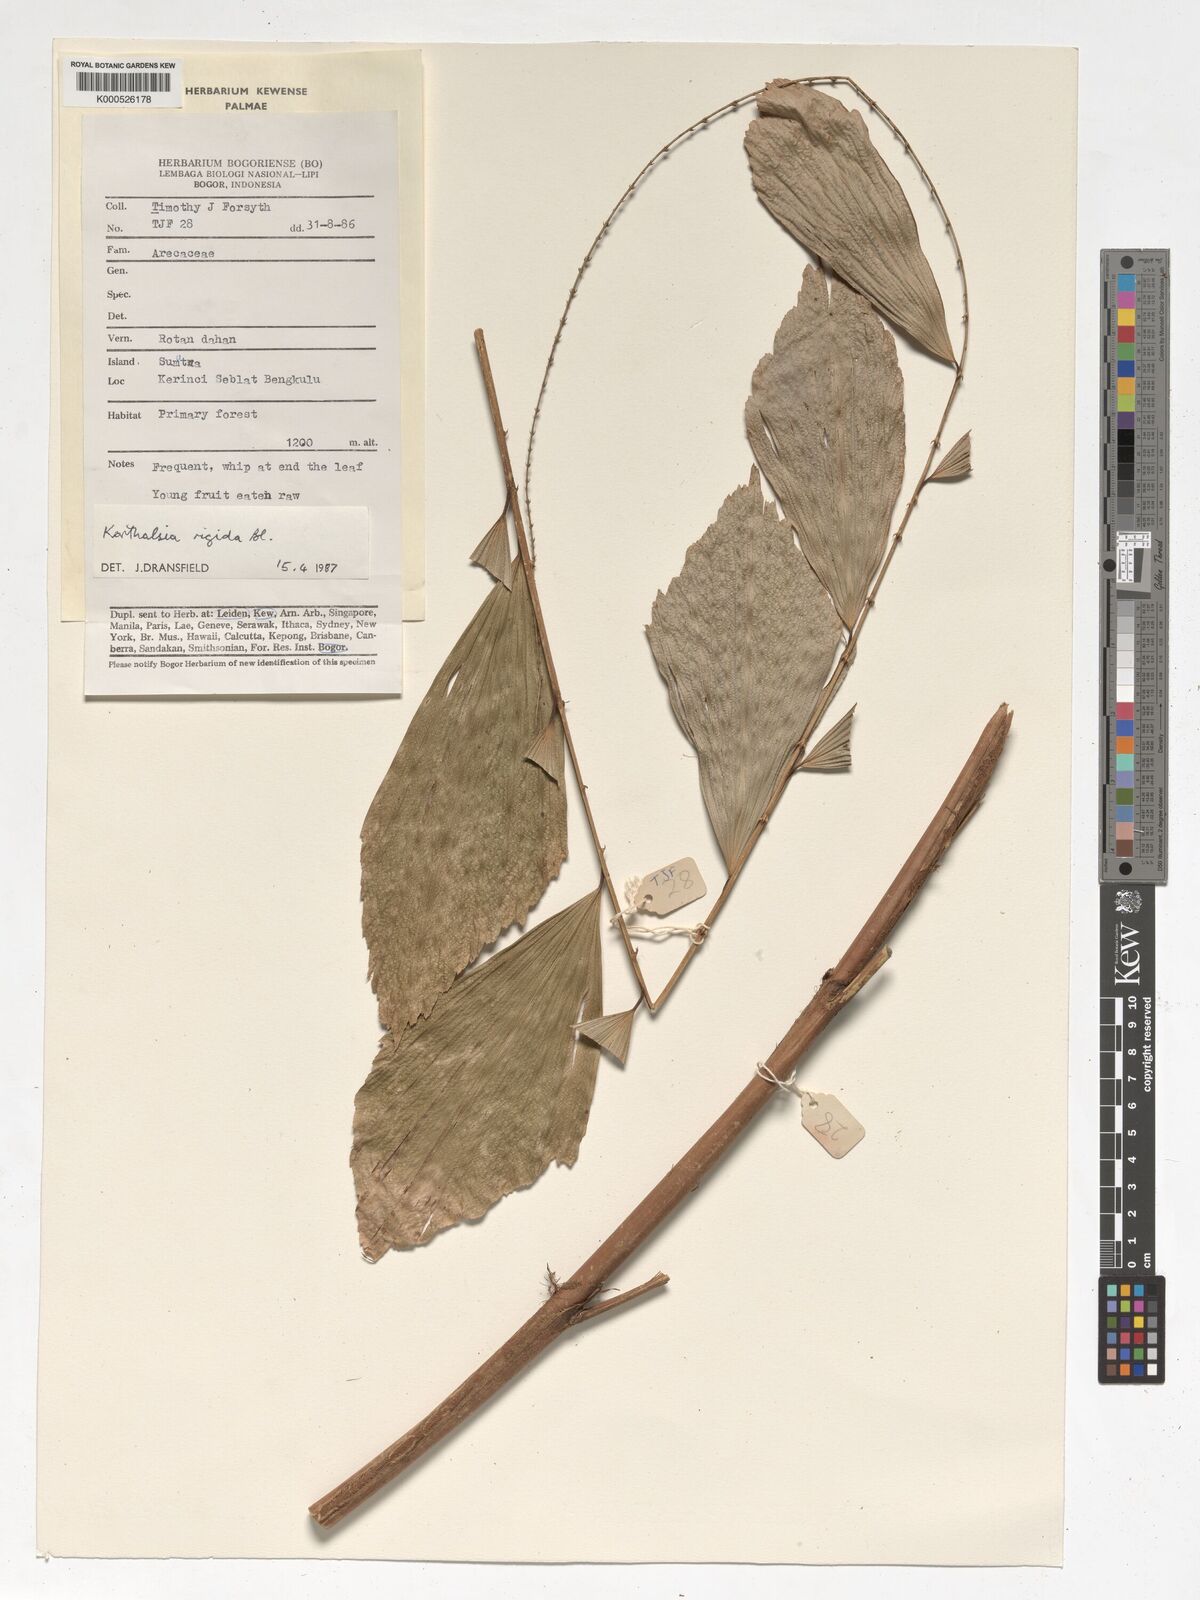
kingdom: Plantae
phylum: Tracheophyta
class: Liliopsida
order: Arecales
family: Arecaceae
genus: Korthalsia
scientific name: Korthalsia rigida
